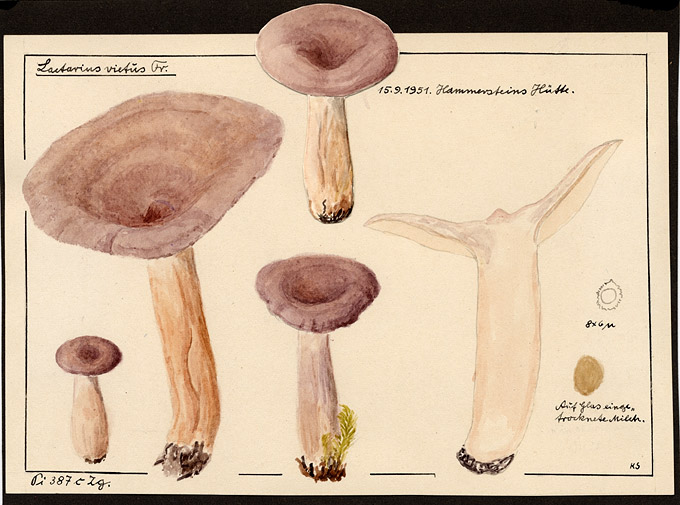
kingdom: Fungi
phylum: Basidiomycota
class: Agaricomycetes
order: Russulales
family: Russulaceae
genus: Lactarius
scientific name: Lactarius vietus
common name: Grey milk-cap
